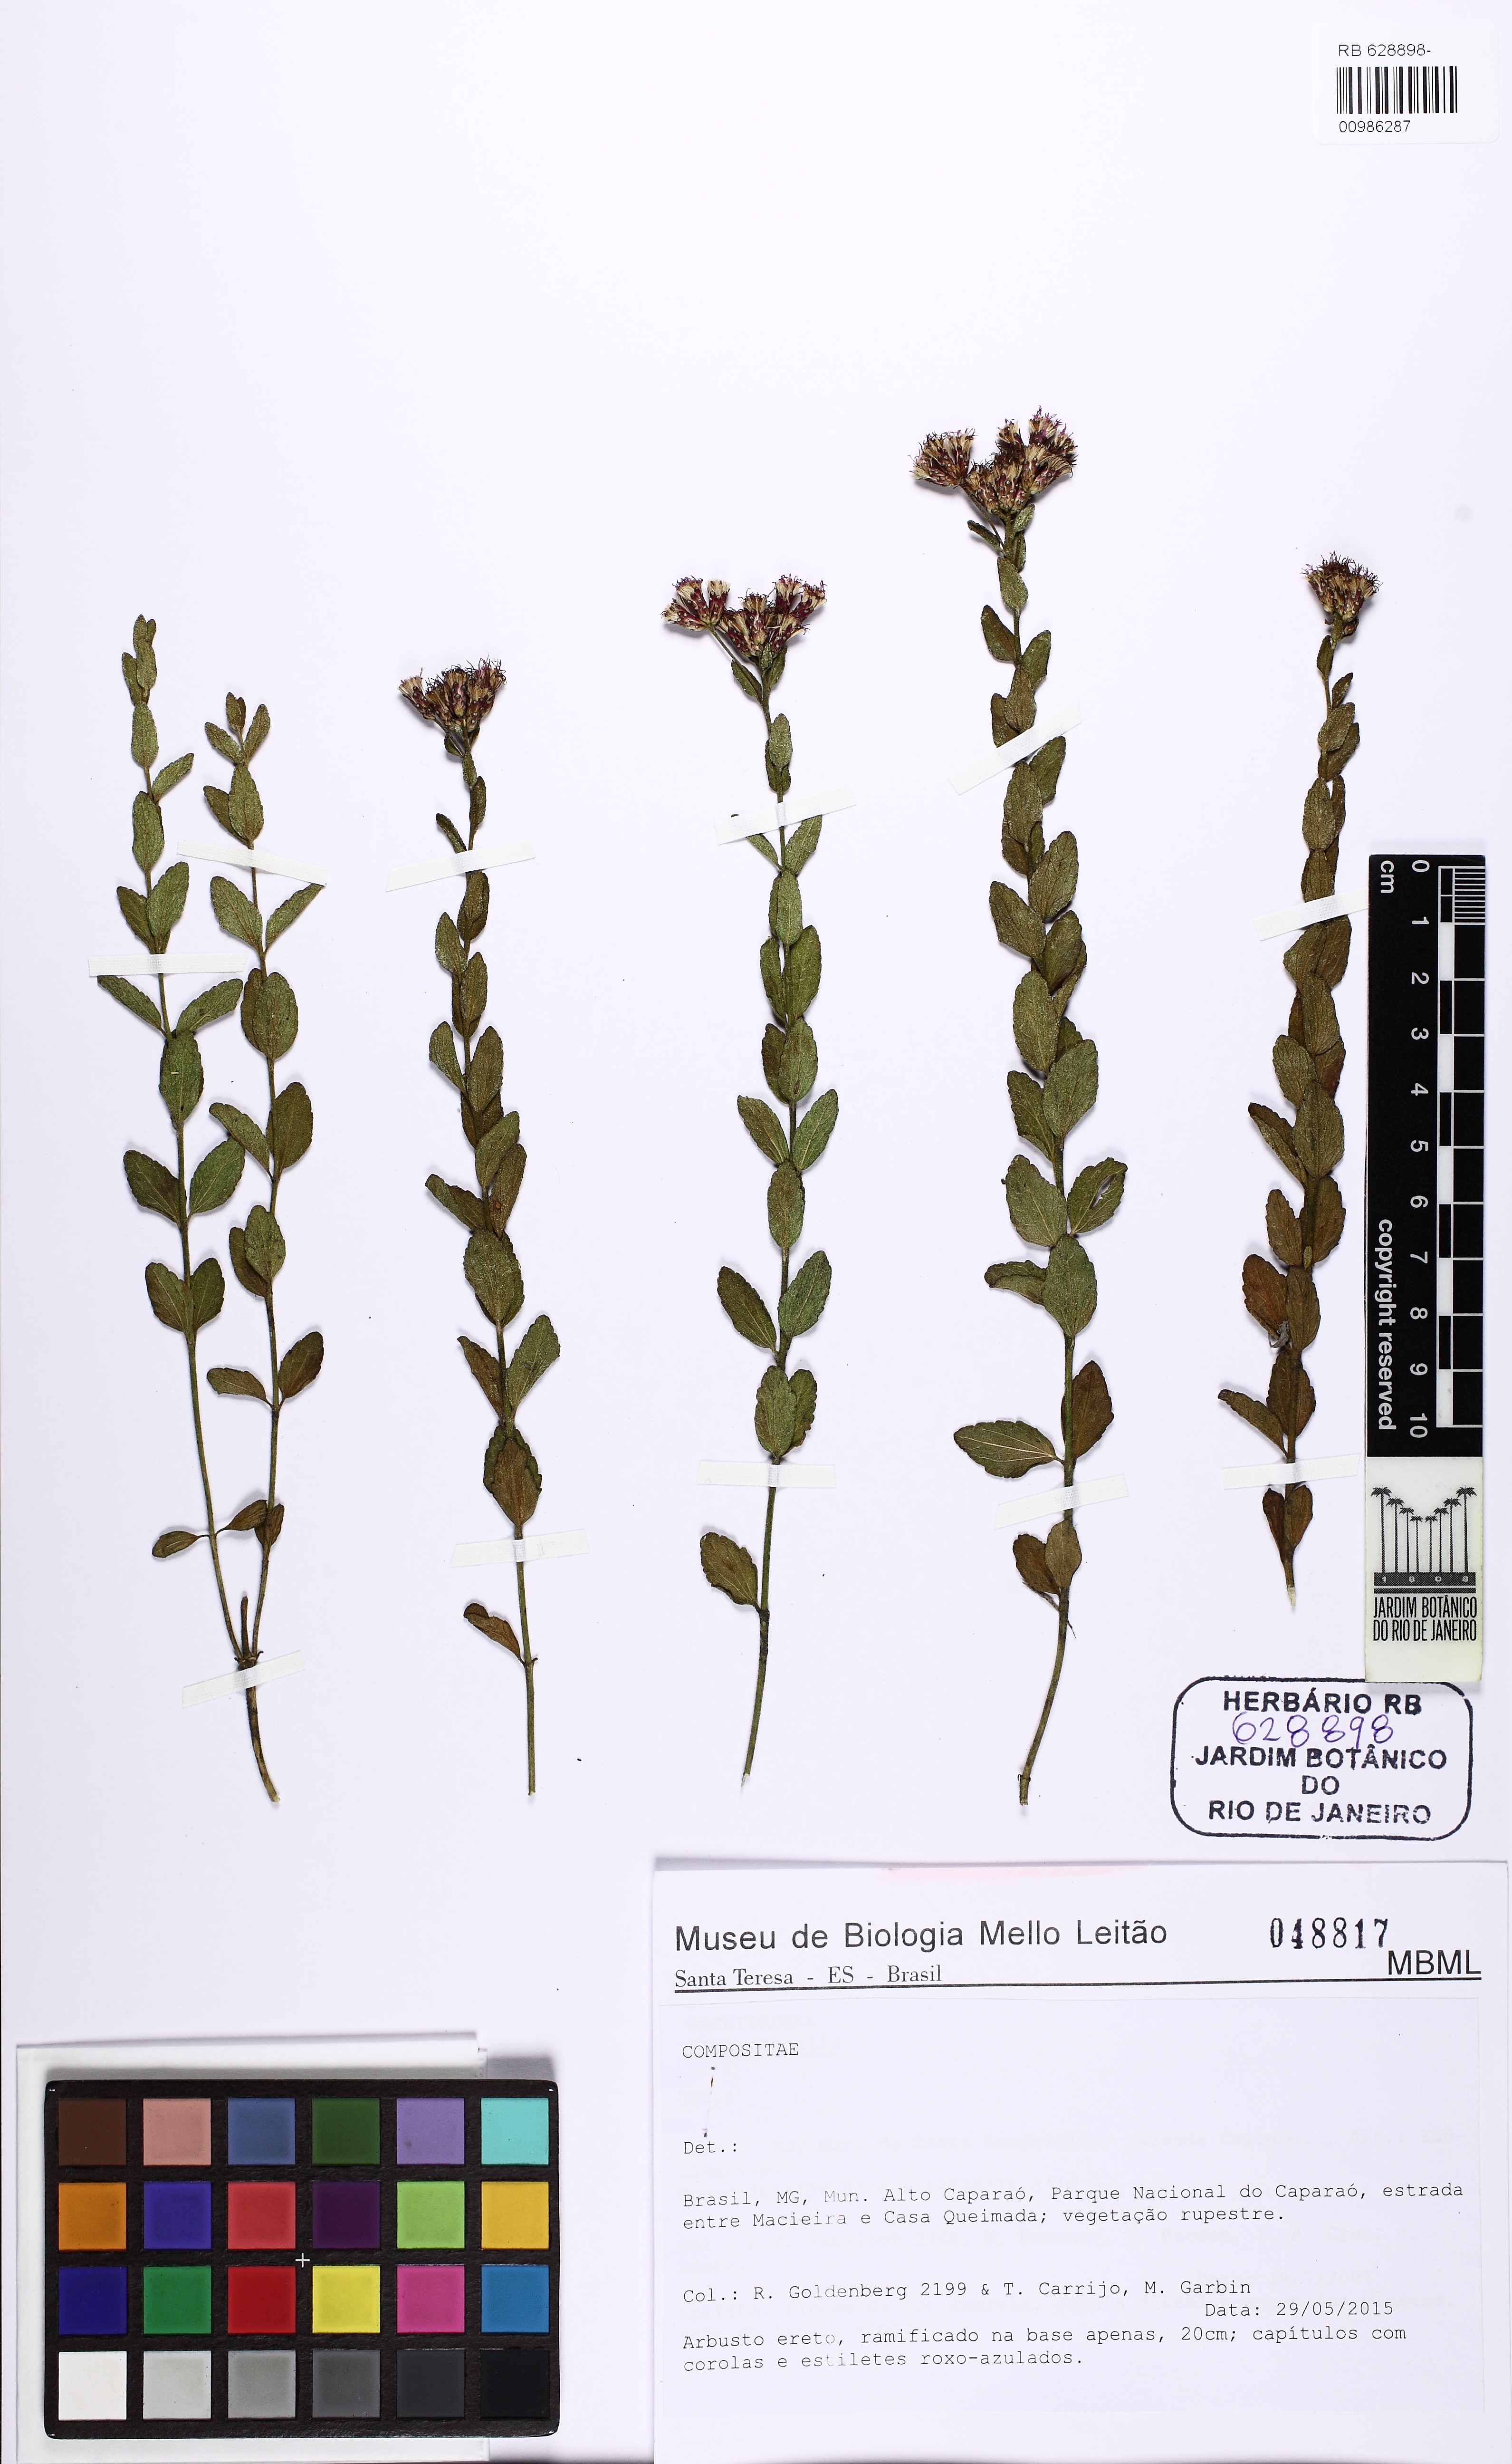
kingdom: Plantae
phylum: Tracheophyta
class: Magnoliopsida
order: Asterales
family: Asteraceae
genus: Chromolaena
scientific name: Chromolaena pedalis
